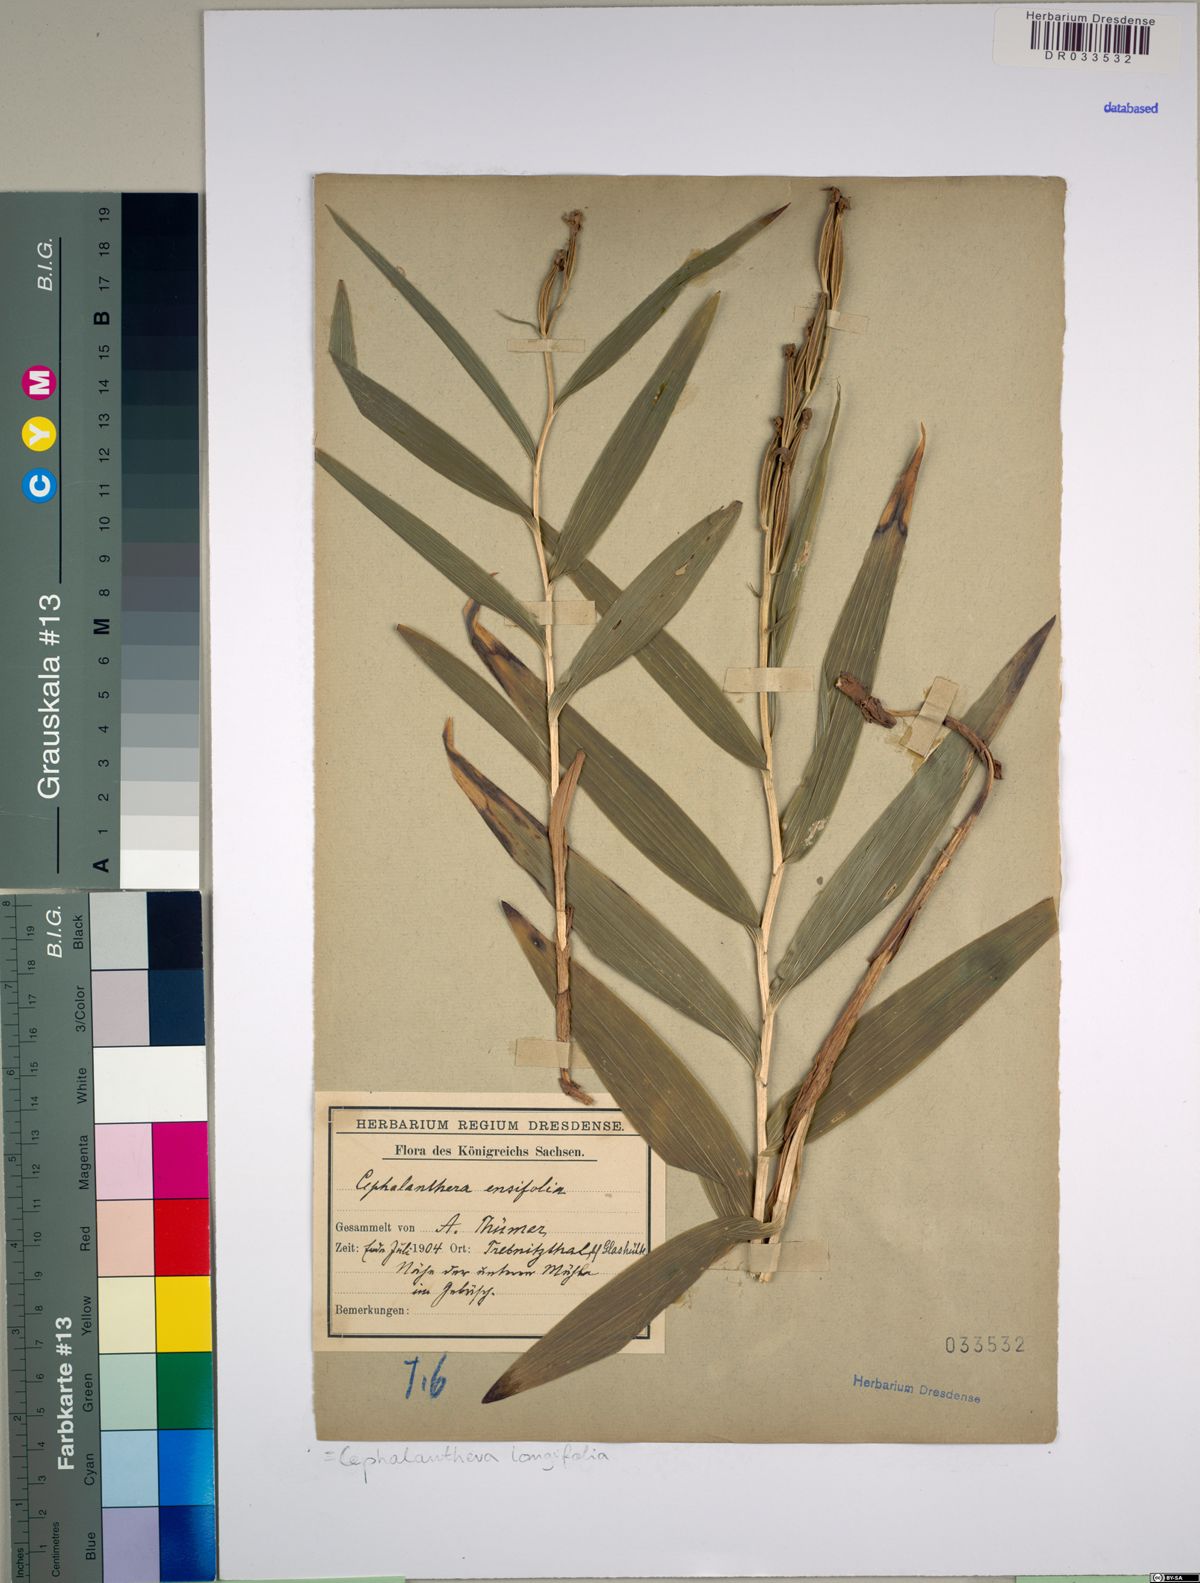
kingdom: Plantae
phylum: Tracheophyta
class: Liliopsida
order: Asparagales
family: Orchidaceae
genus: Cephalanthera
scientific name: Cephalanthera longifolia
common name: Narrow-leaved helleborine
